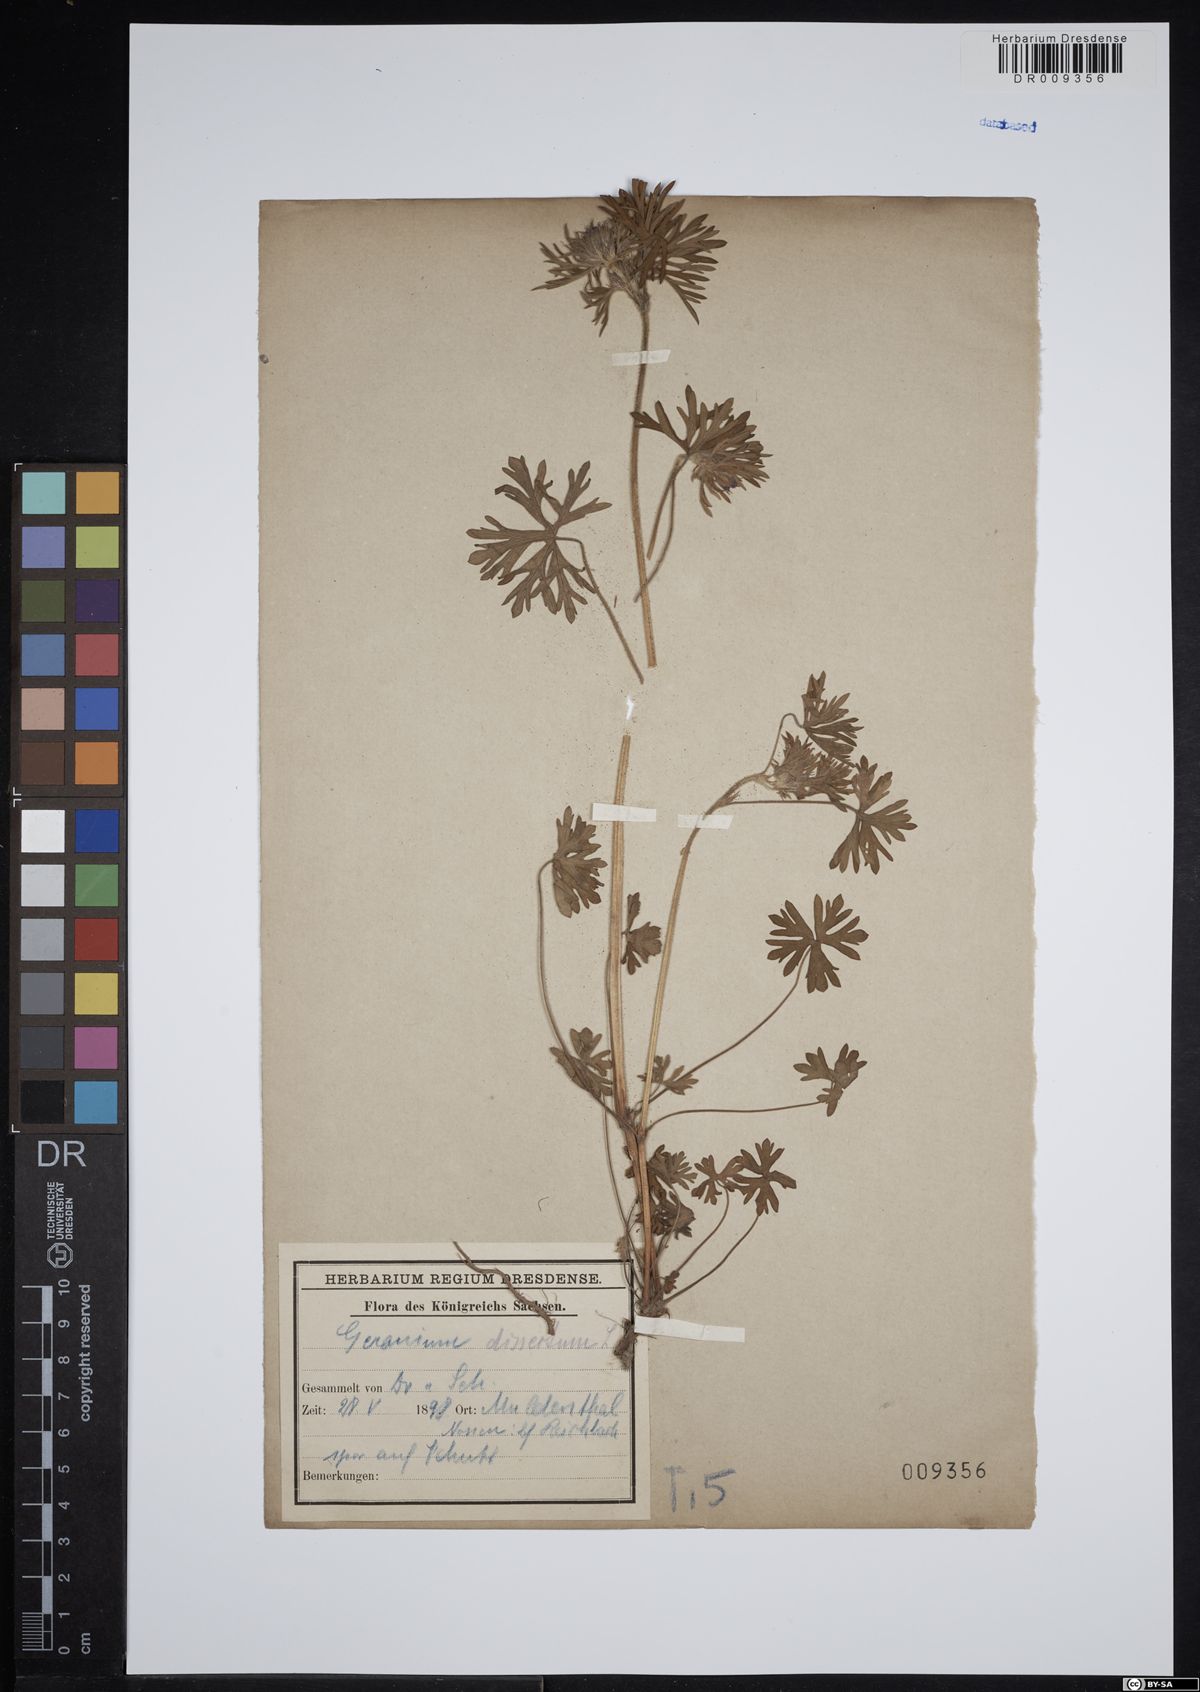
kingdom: Plantae
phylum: Tracheophyta
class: Magnoliopsida
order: Geraniales
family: Geraniaceae
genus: Geranium
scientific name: Geranium dissectum
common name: Cut-leaved crane's-bill
